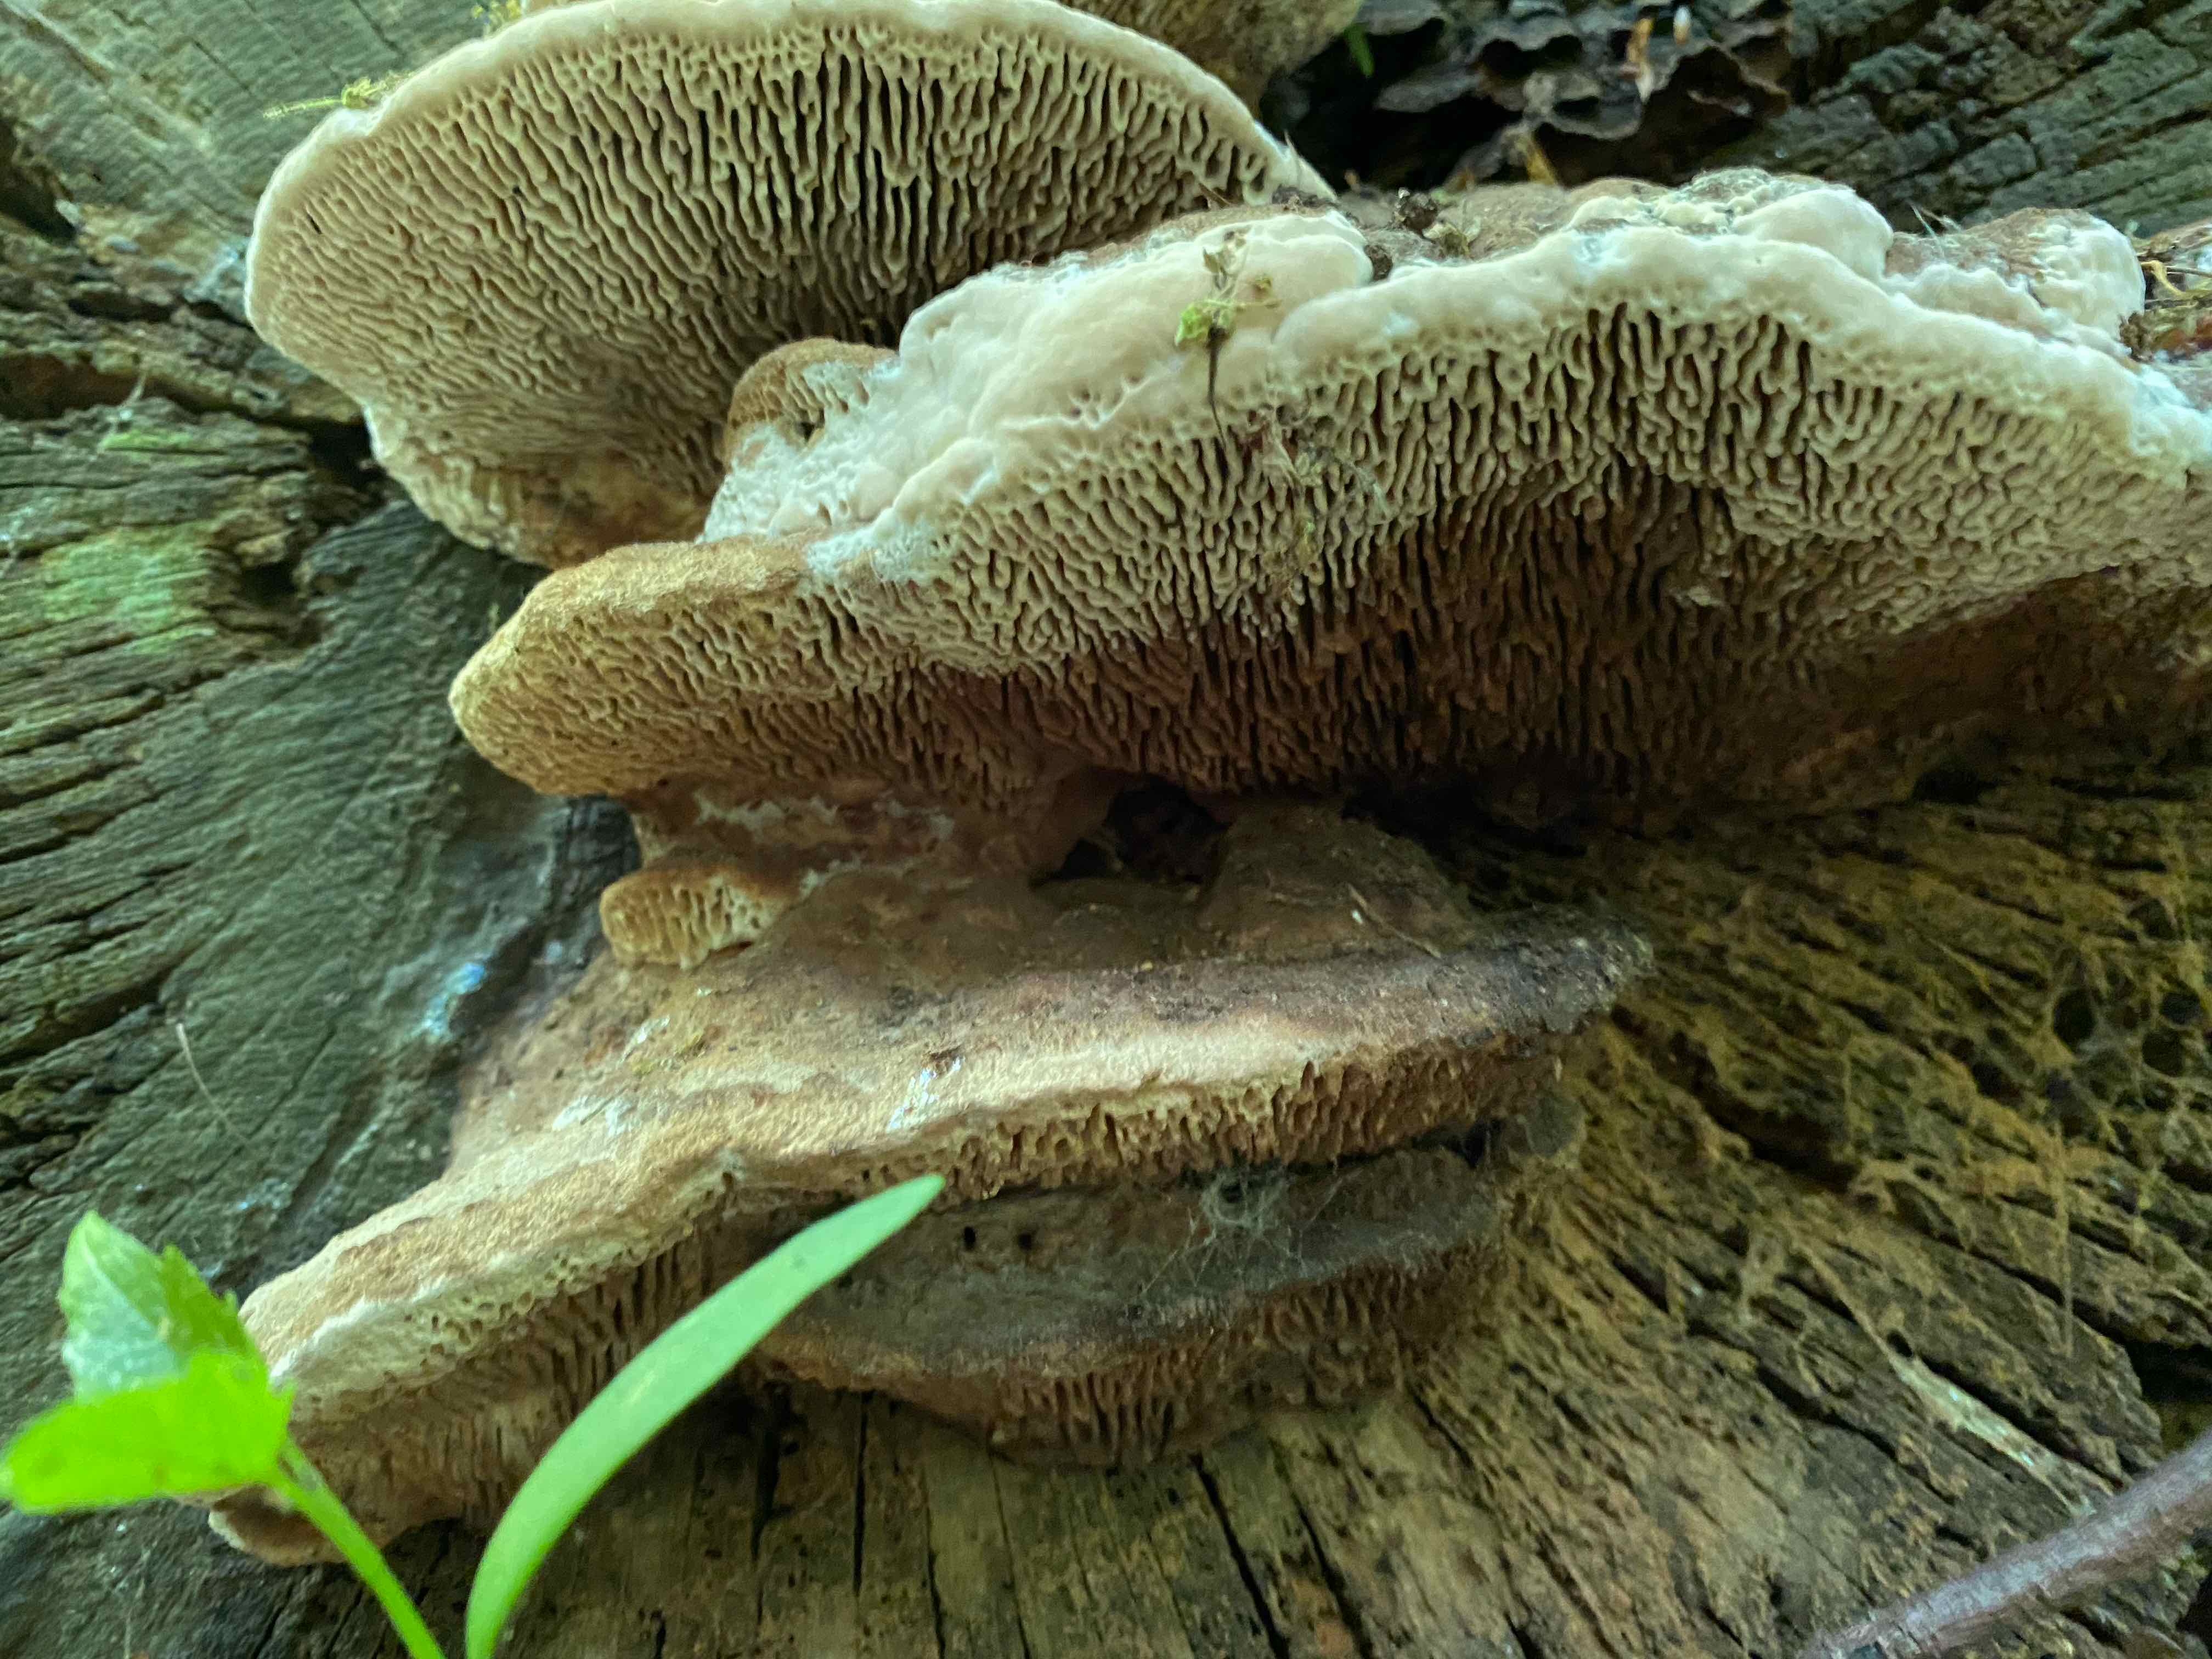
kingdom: Fungi
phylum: Basidiomycota
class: Agaricomycetes
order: Polyporales
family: Fomitopsidaceae
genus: Daedalea
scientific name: Daedalea quercina
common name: ege-labyrintsvamp
